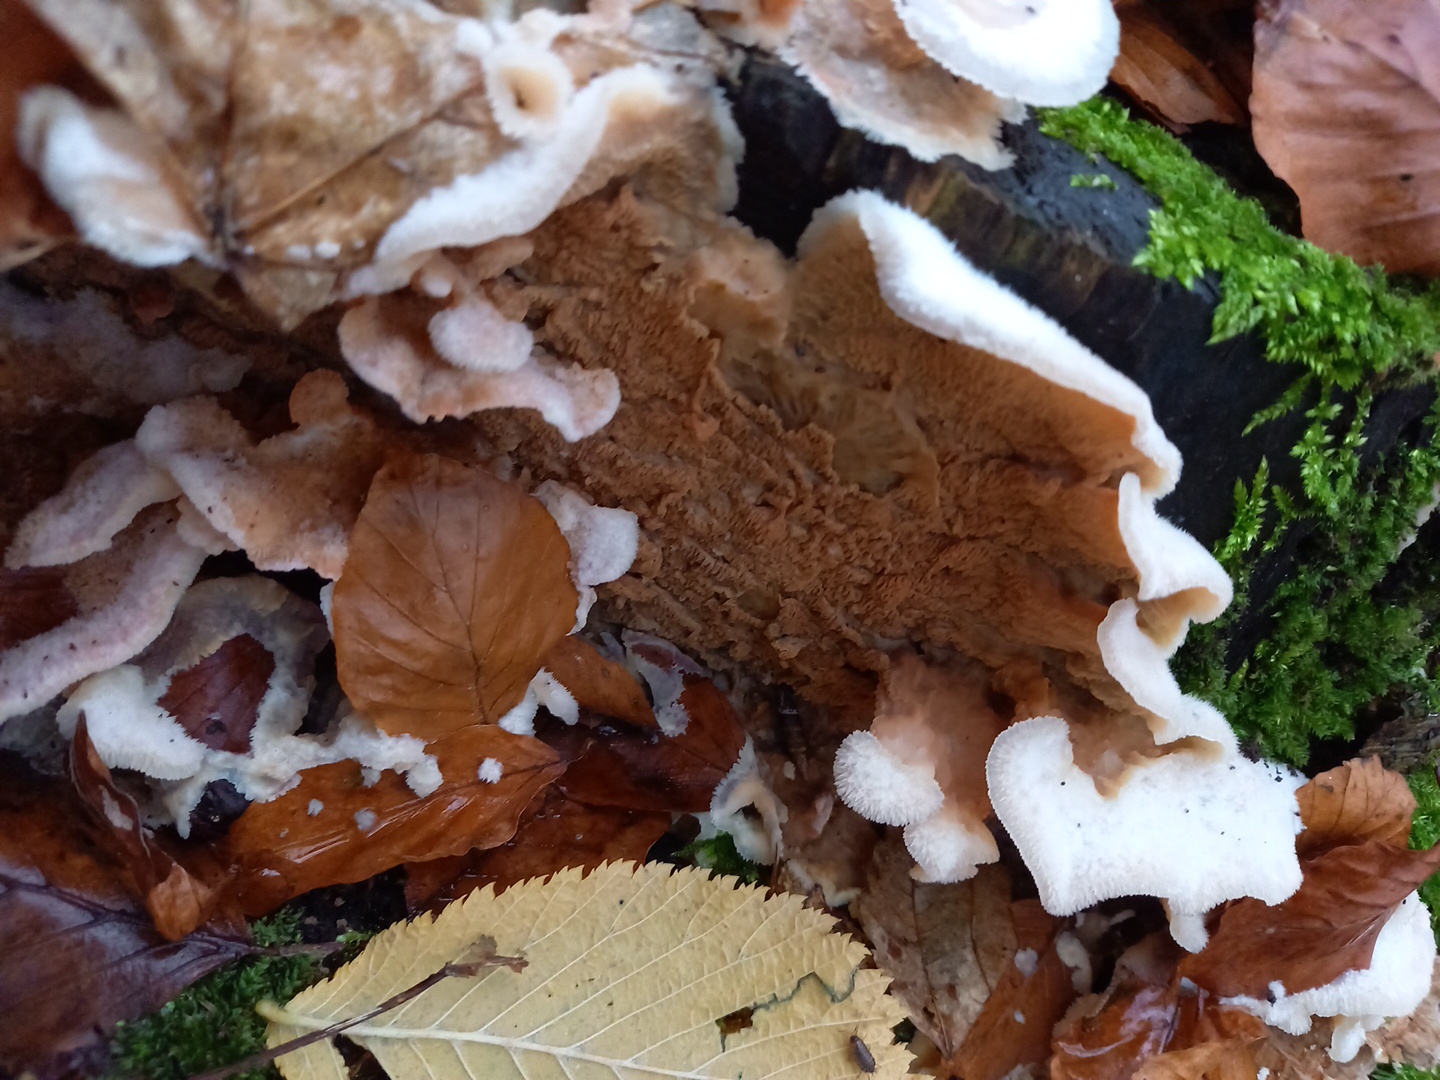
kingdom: Fungi
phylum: Basidiomycota
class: Agaricomycetes
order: Polyporales
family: Meruliaceae
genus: Phlebia
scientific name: Phlebia tremellosa
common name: bævrende åresvamp
